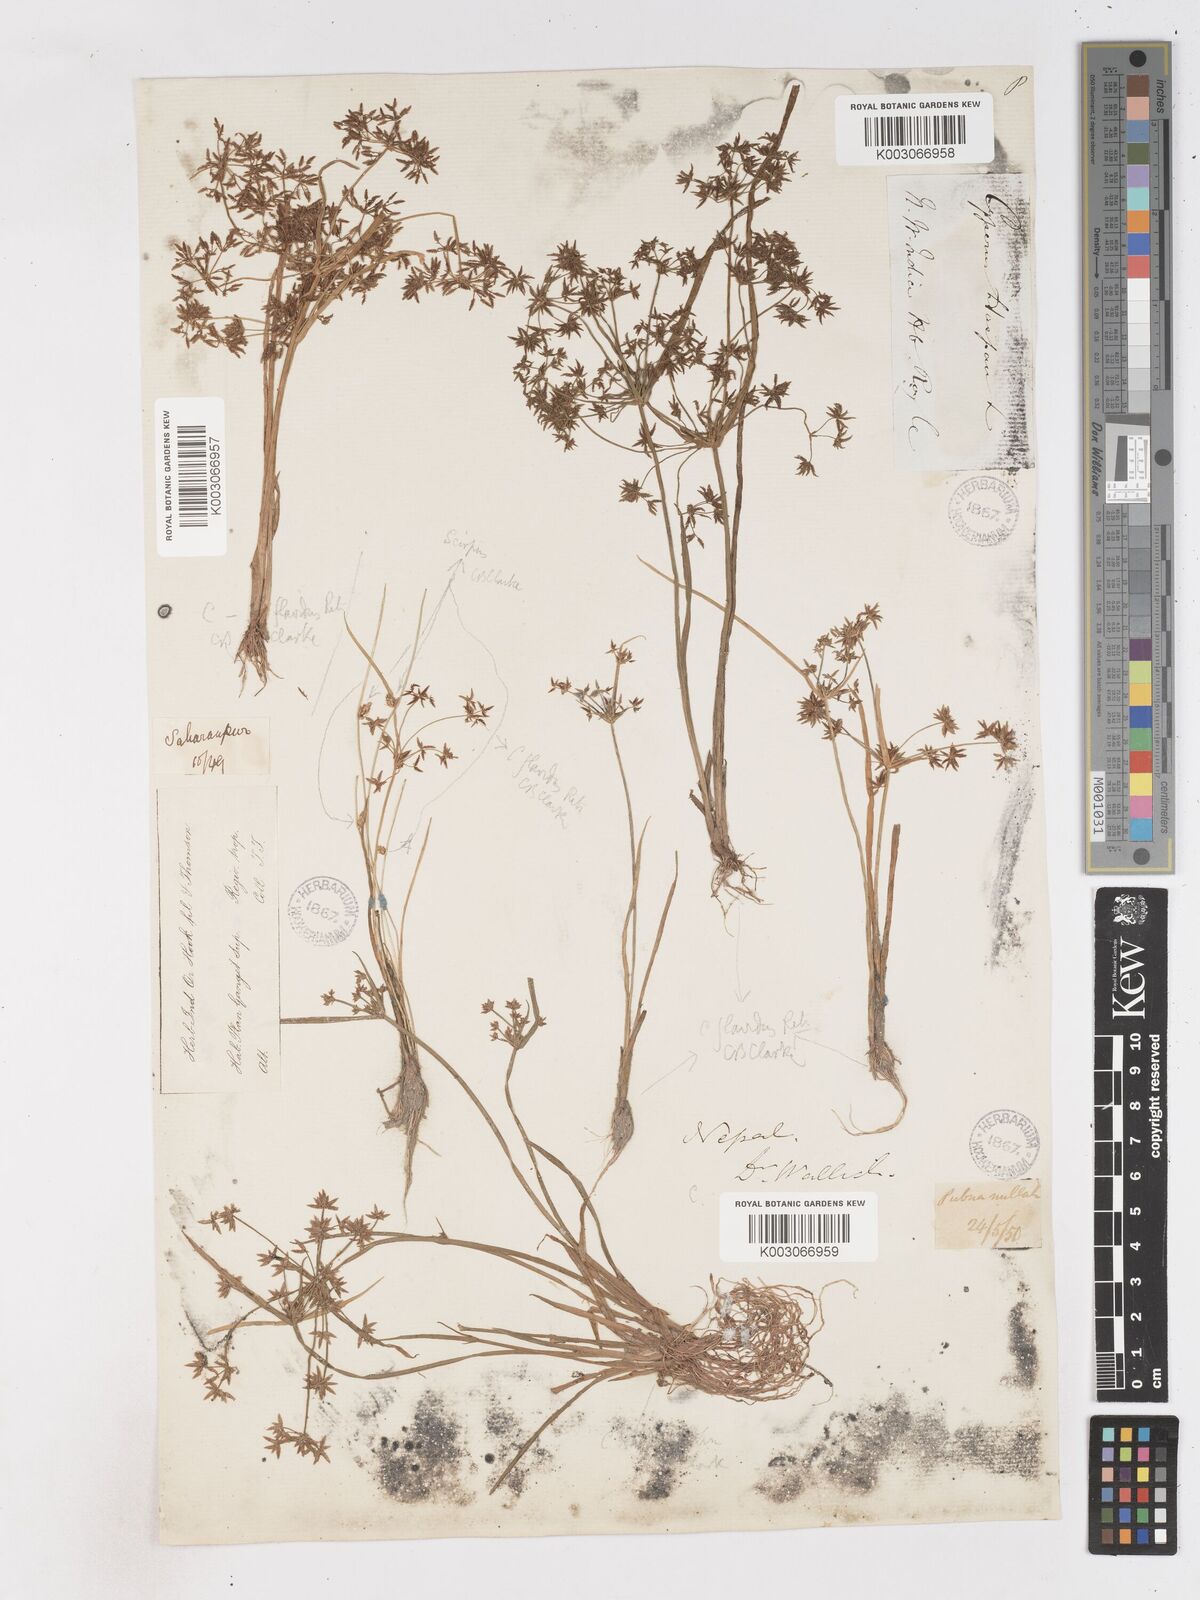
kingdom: Plantae
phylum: Tracheophyta
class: Liliopsida
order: Poales
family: Cyperaceae
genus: Cyperus
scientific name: Cyperus tenuispica
